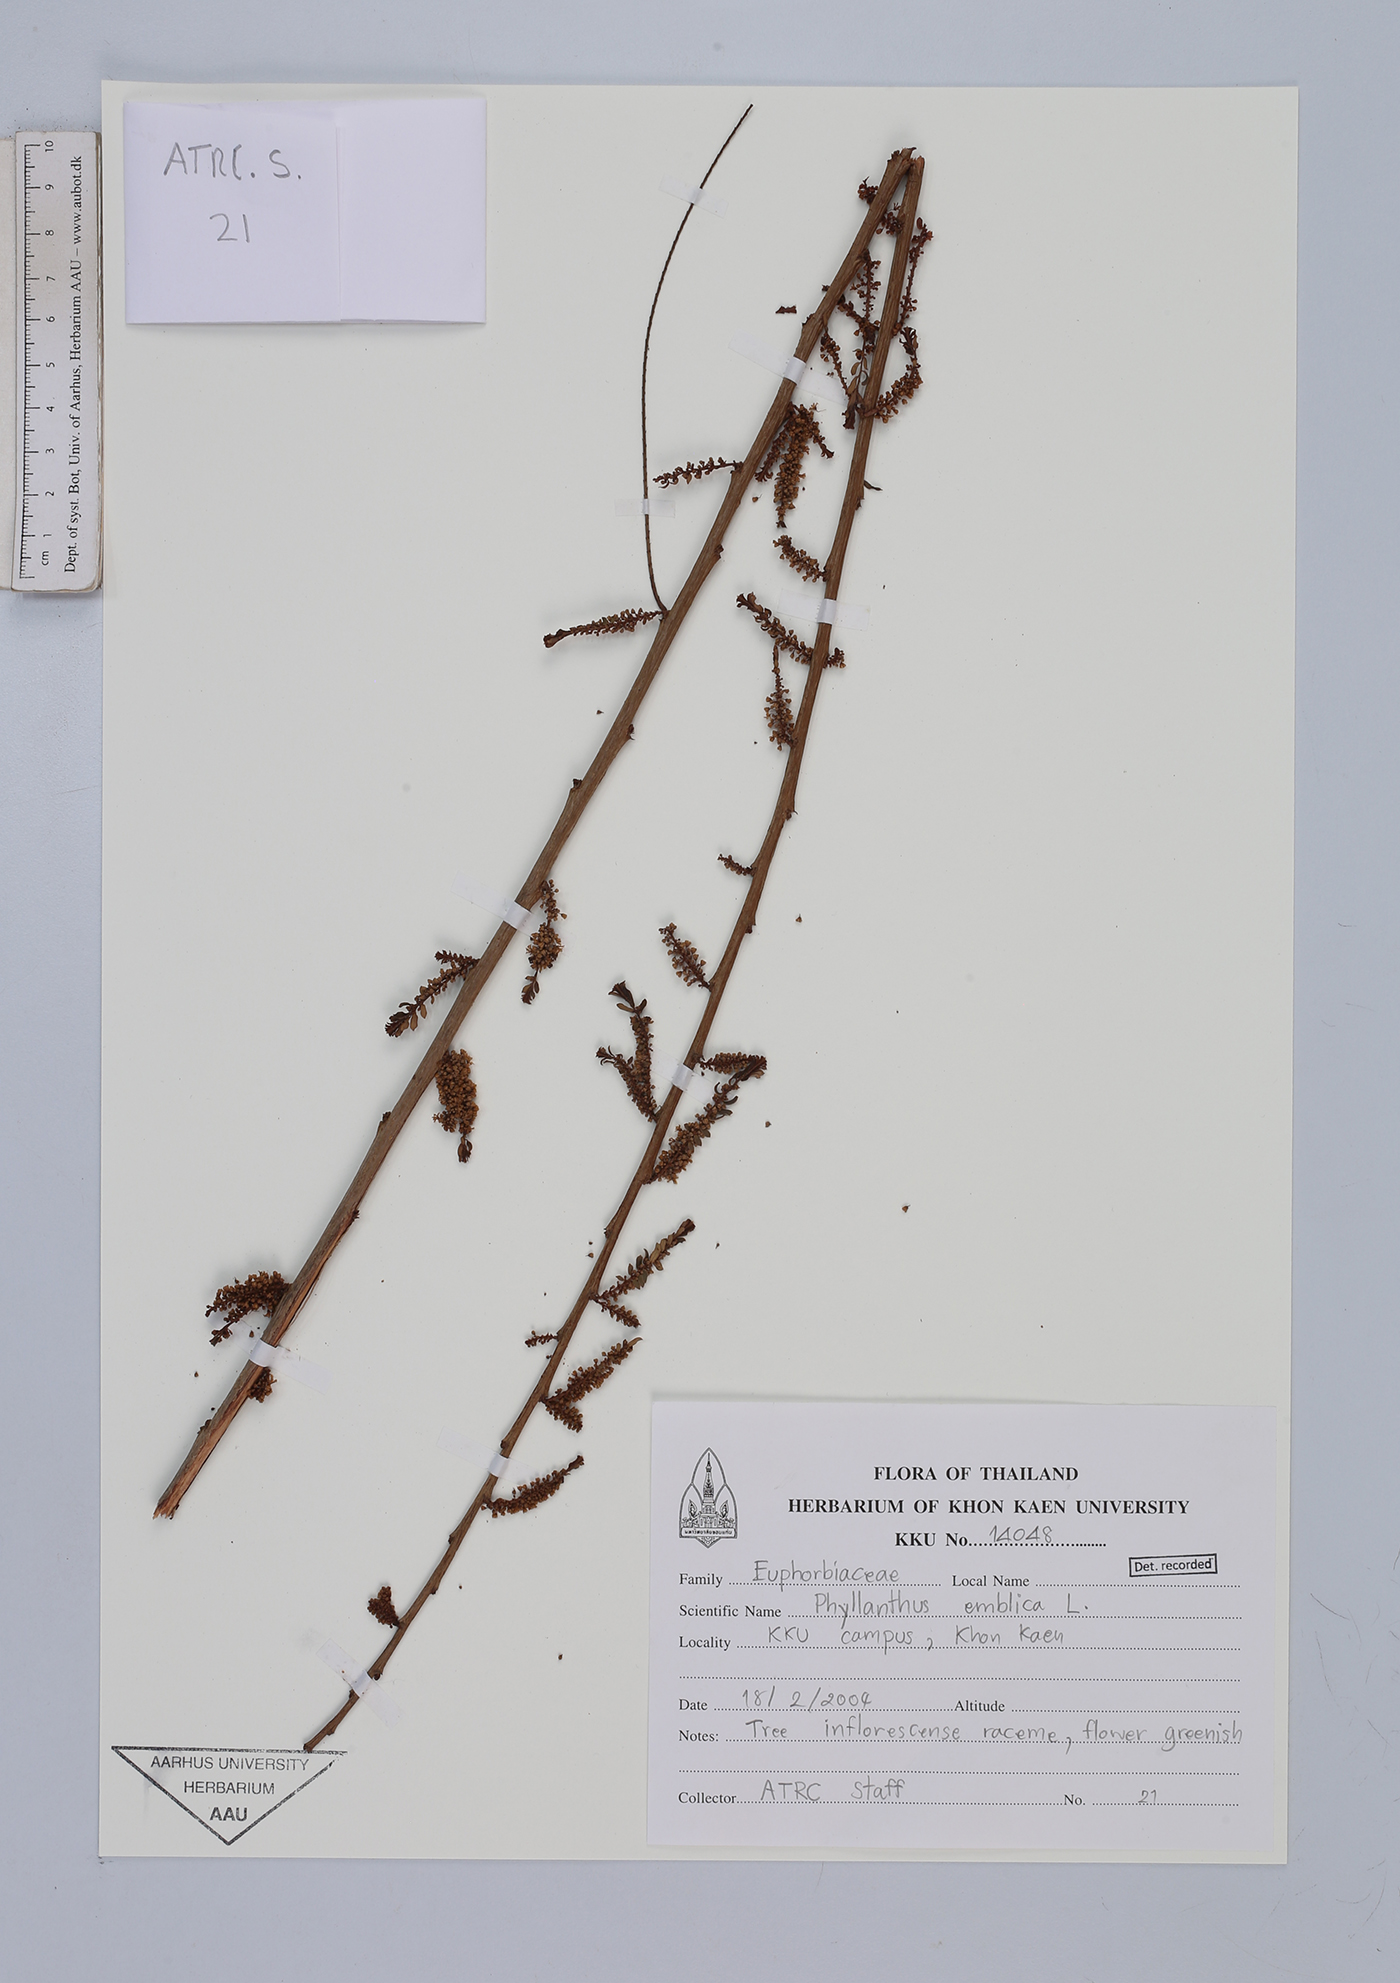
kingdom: Plantae
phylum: Tracheophyta
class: Magnoliopsida
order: Malpighiales
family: Phyllanthaceae
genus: Phyllanthus
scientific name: Phyllanthus emblica
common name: Indian gooseberry
